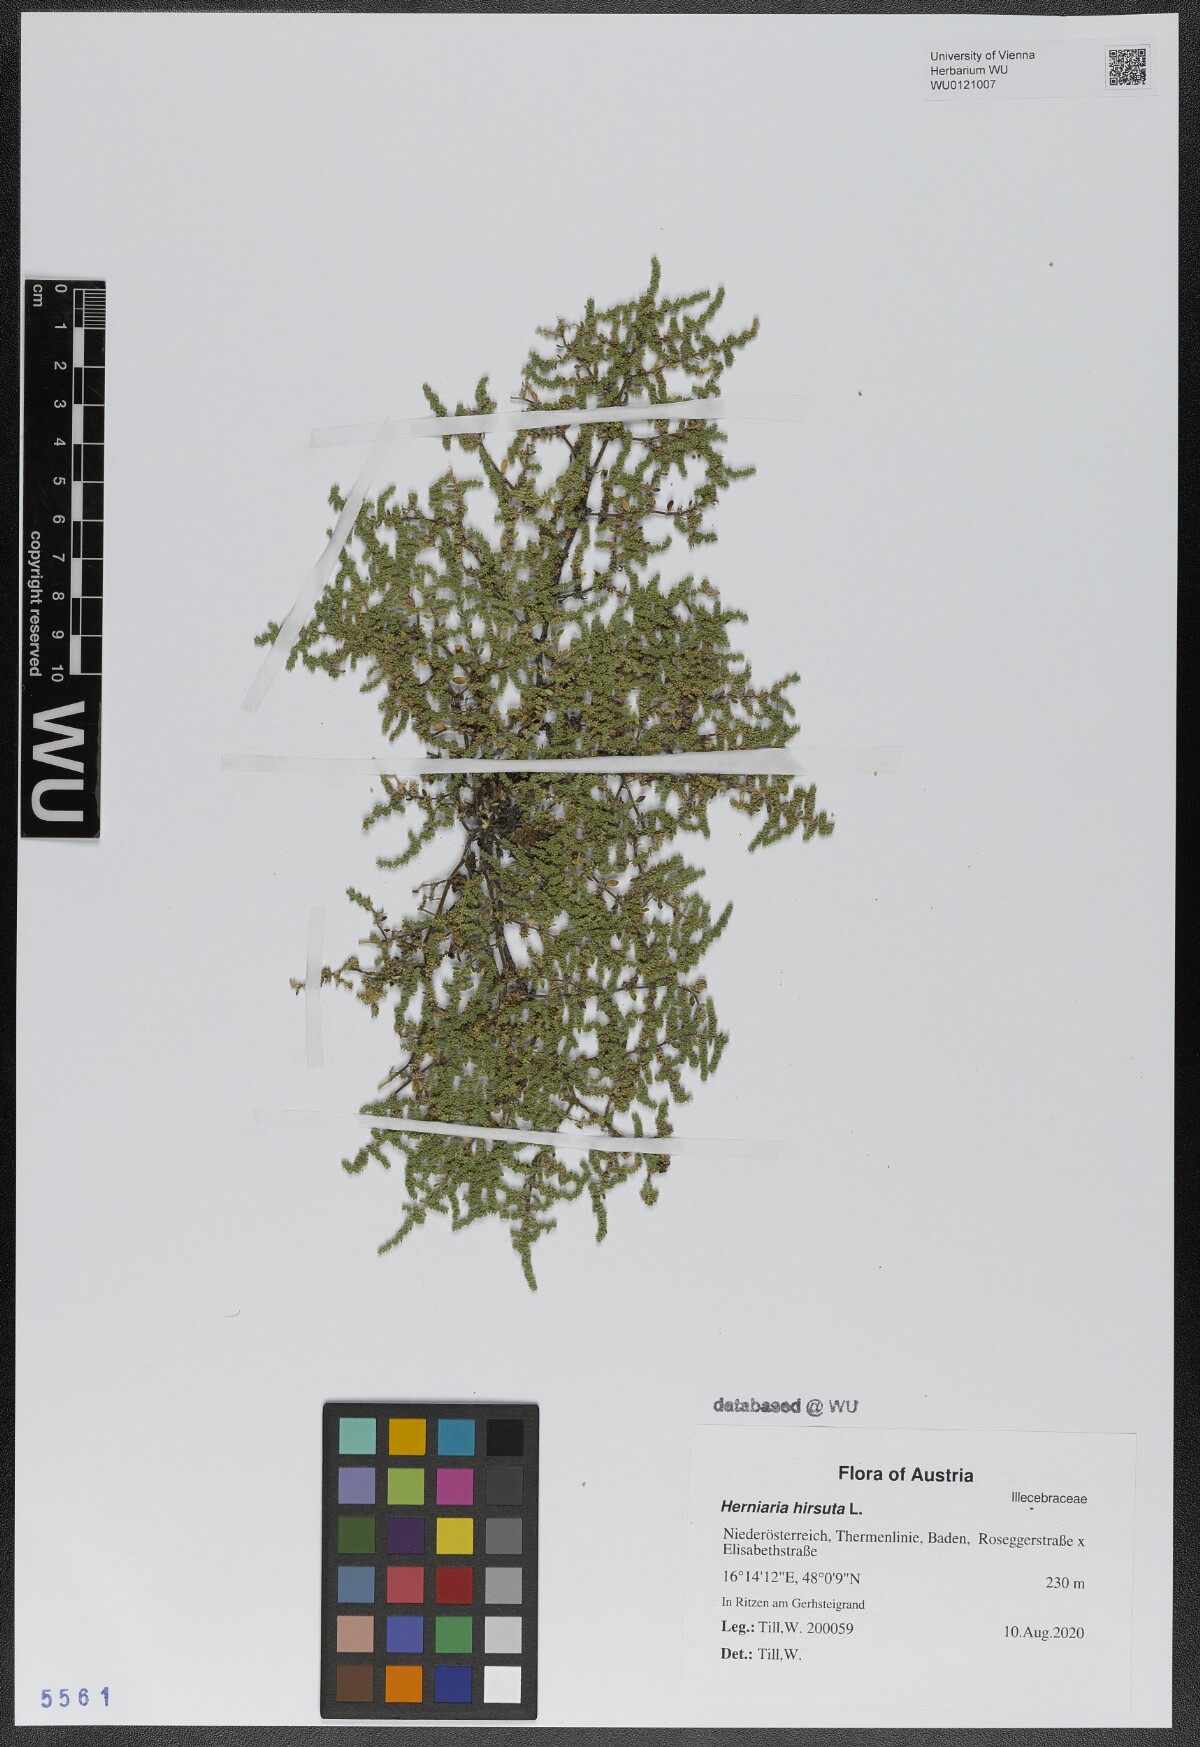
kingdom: Plantae
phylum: Tracheophyta
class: Magnoliopsida
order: Caryophyllales
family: Caryophyllaceae
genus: Herniaria
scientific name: Herniaria hirsuta
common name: Hairy rupturewort
